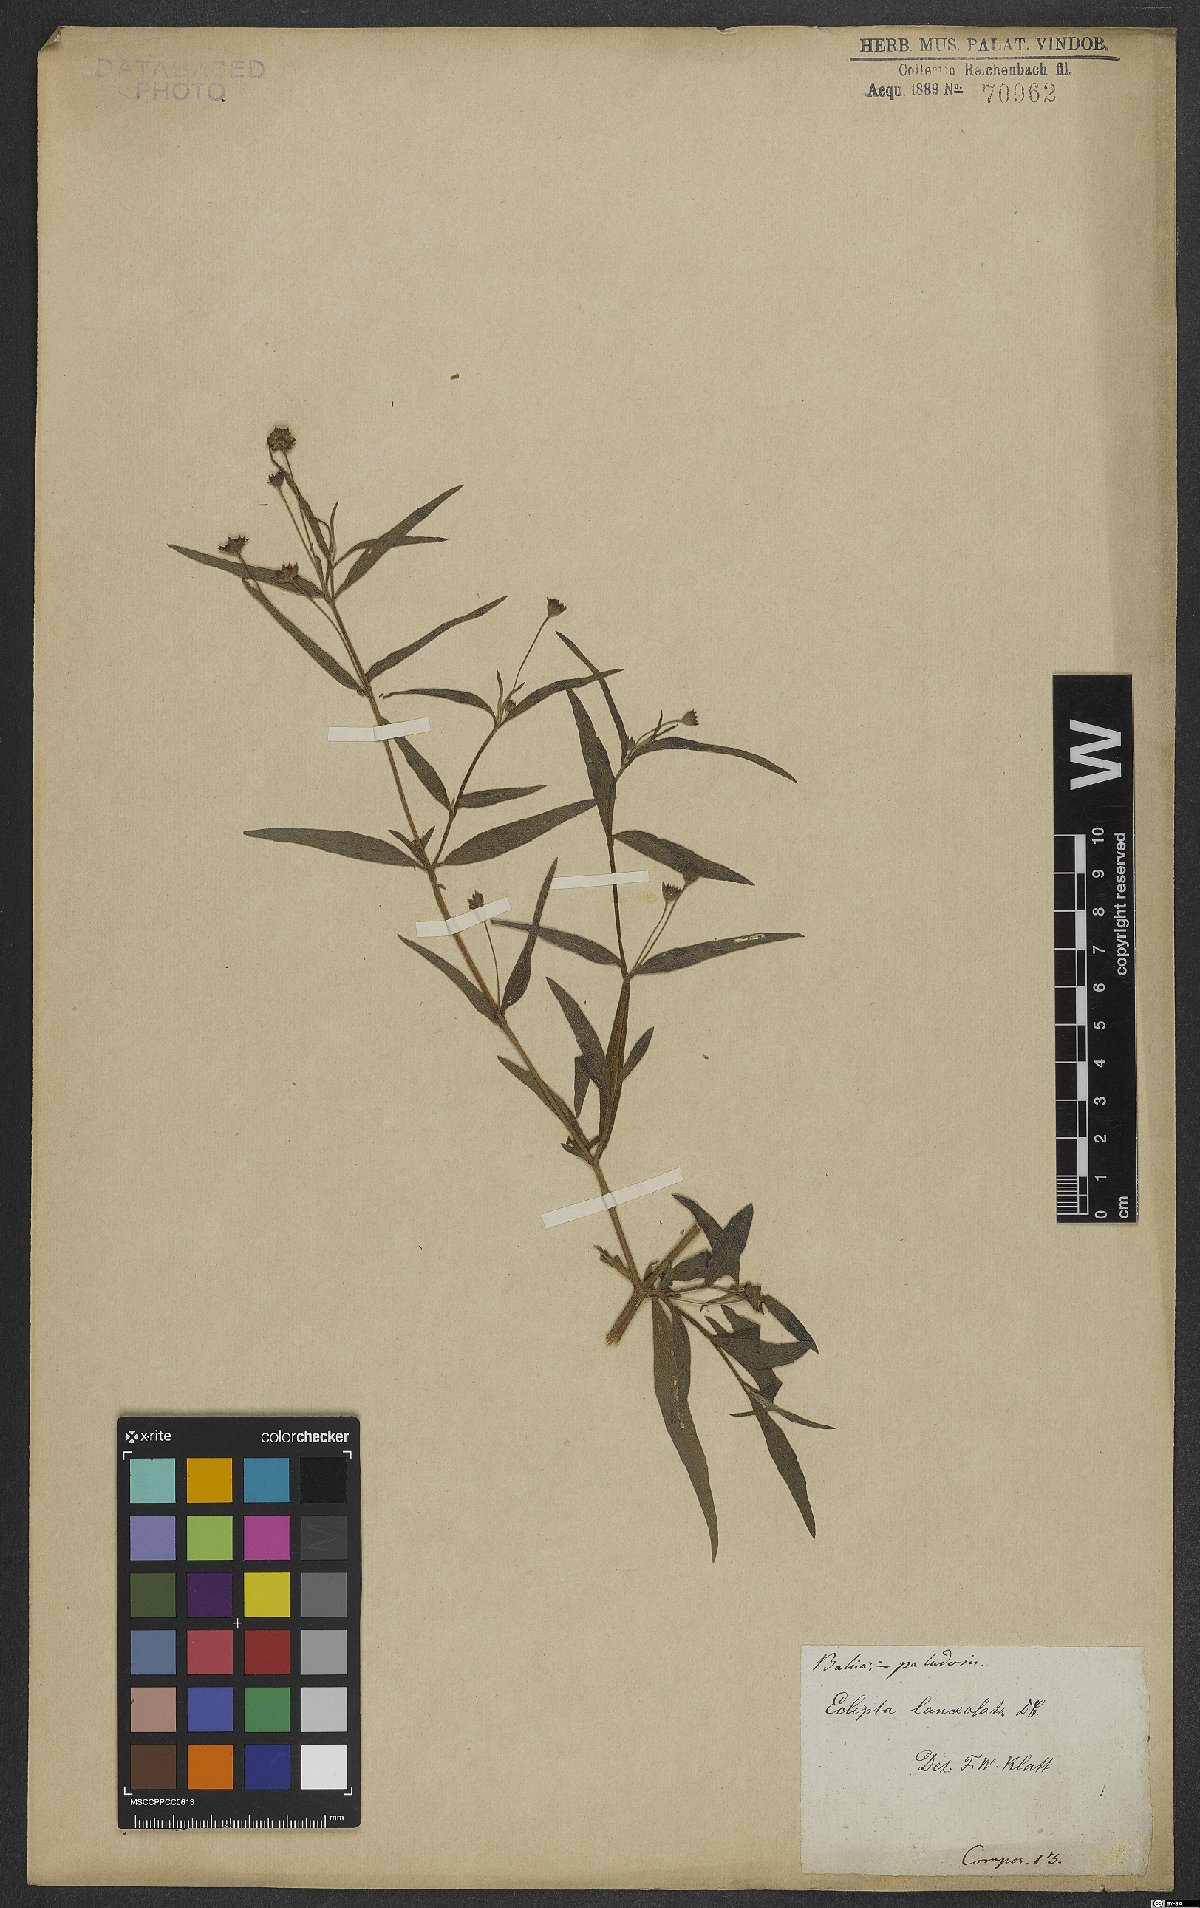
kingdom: Plantae
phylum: Tracheophyta
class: Magnoliopsida
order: Asterales
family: Asteraceae
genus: Eclipta
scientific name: Eclipta megapotamica
